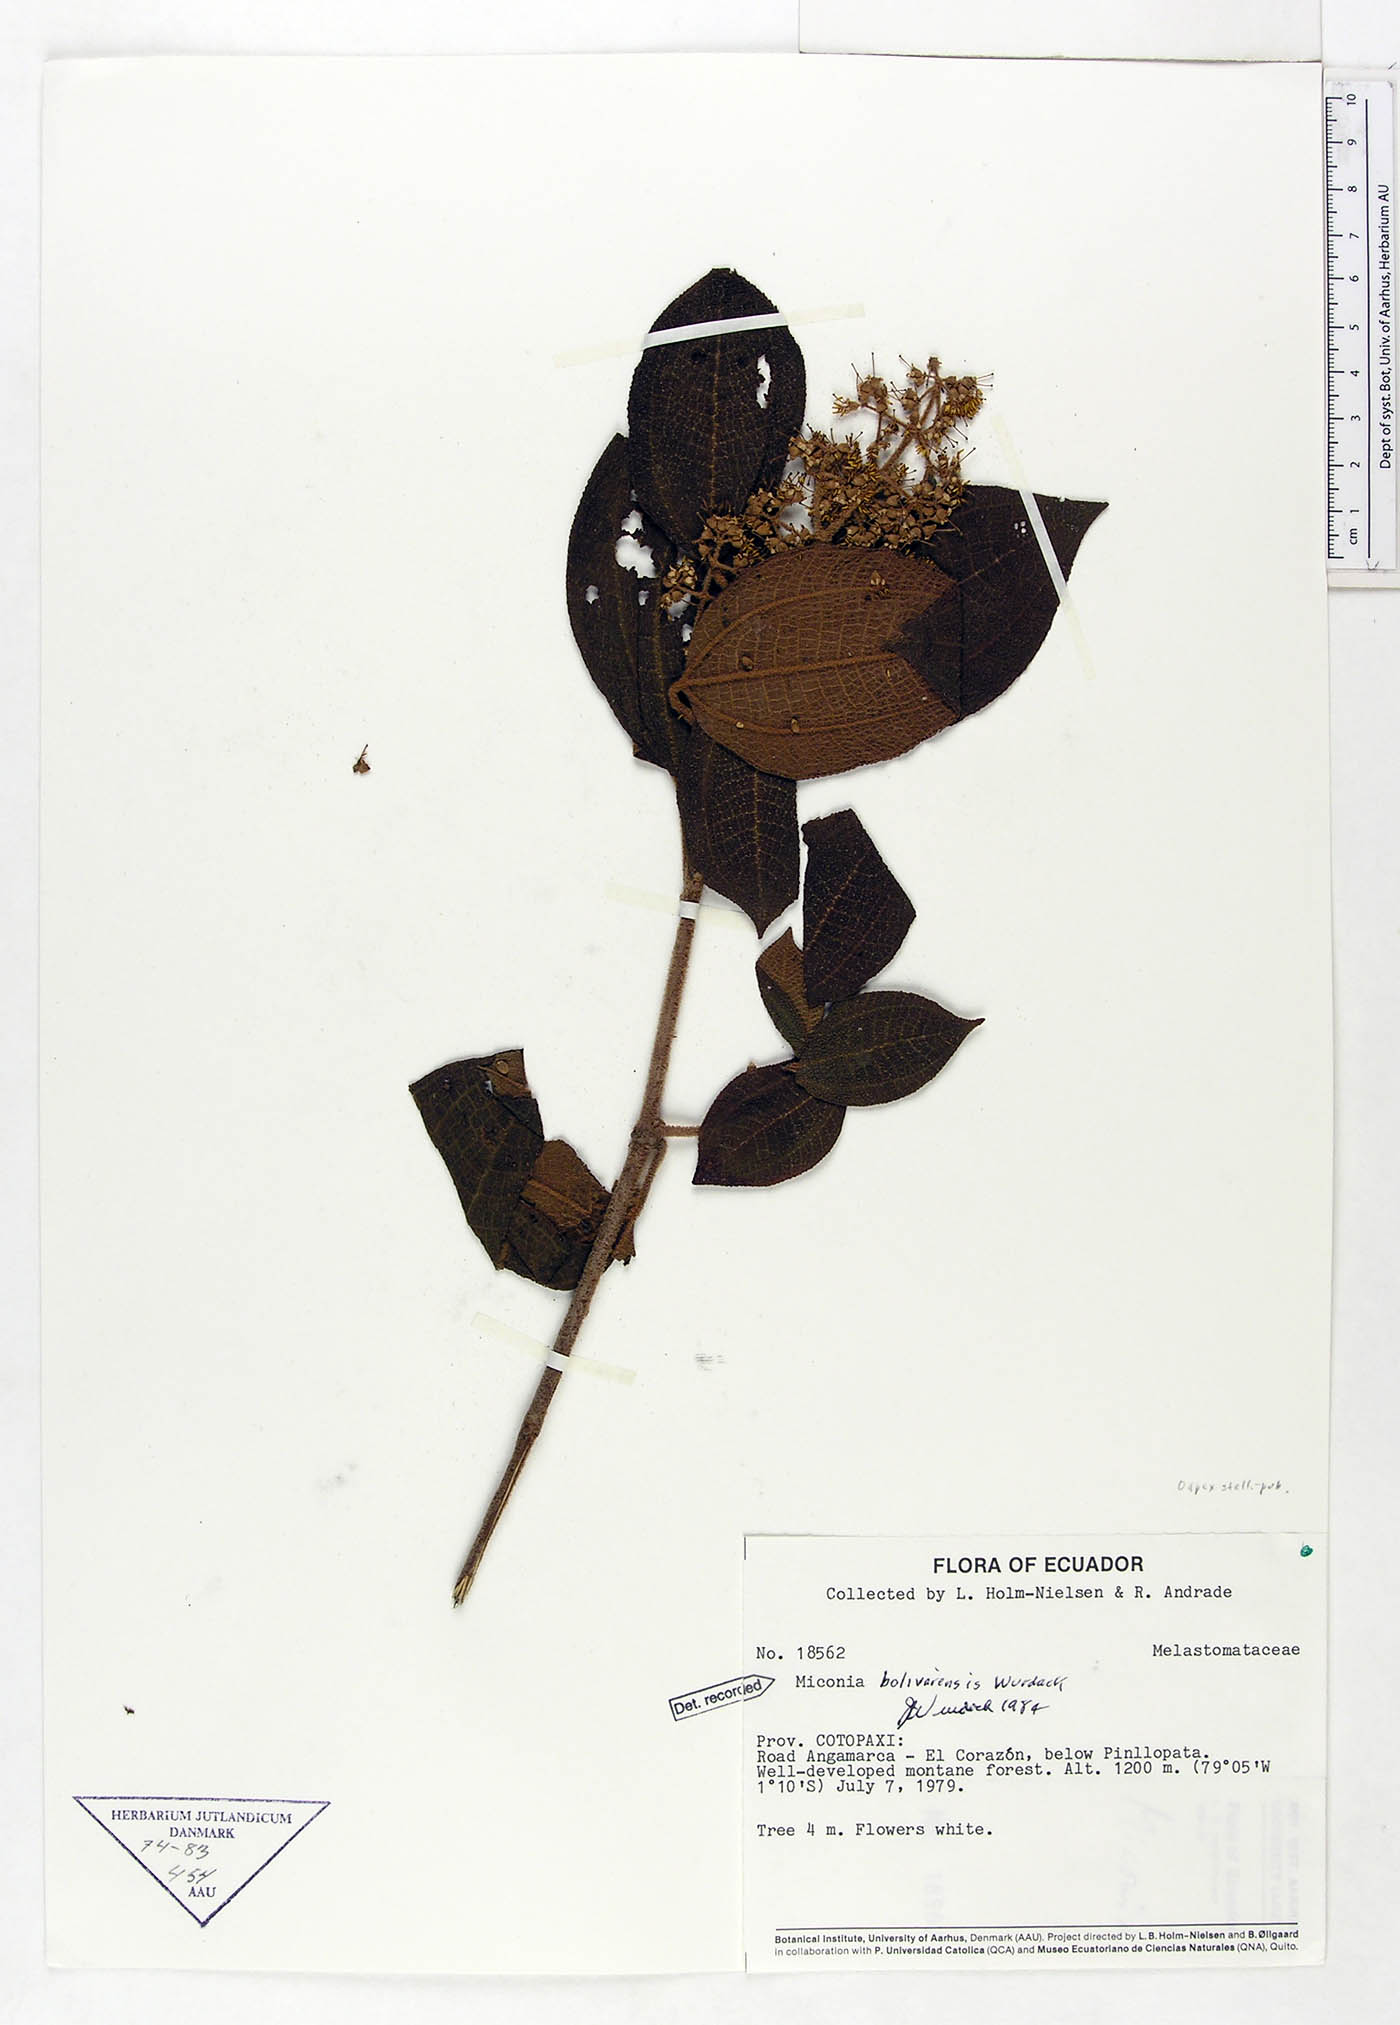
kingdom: Plantae
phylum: Tracheophyta
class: Magnoliopsida
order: Myrtales
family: Melastomataceae
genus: Miconia
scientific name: Miconia bolivarensis
